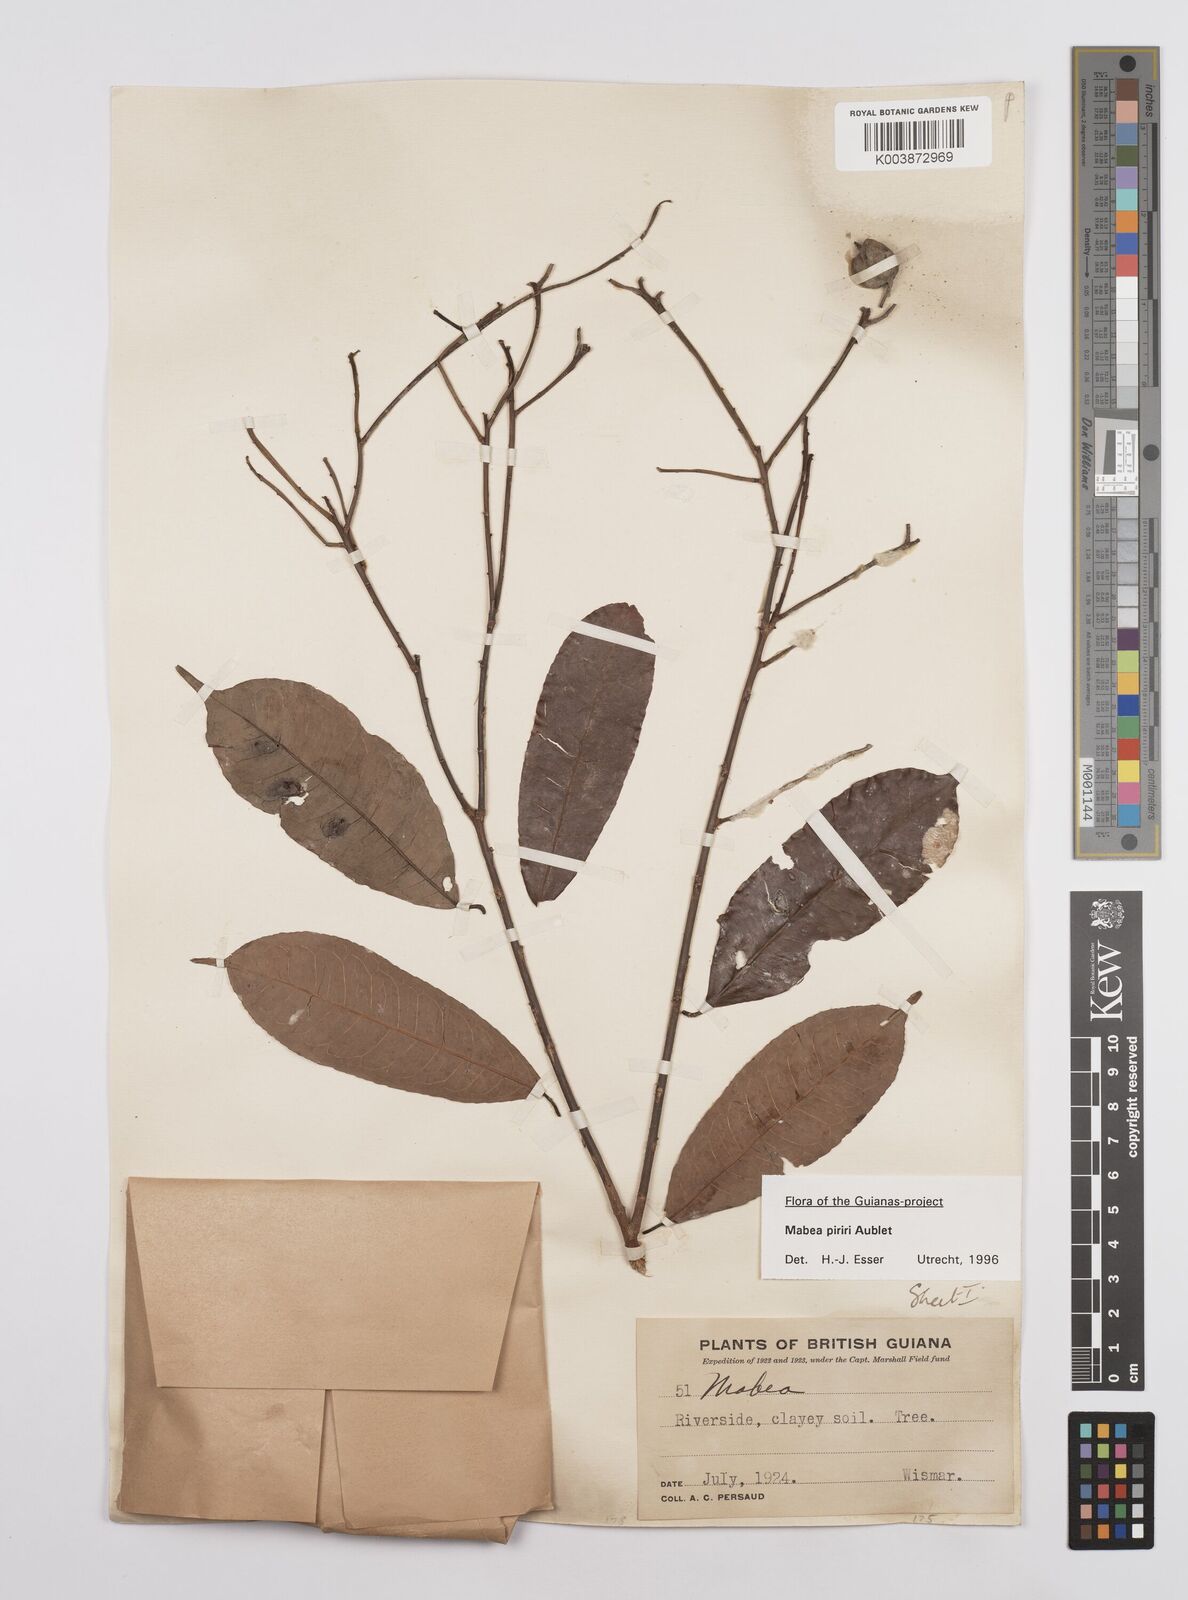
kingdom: Plantae
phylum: Tracheophyta
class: Magnoliopsida
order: Malpighiales
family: Euphorbiaceae
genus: Mabea
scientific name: Mabea piriri
